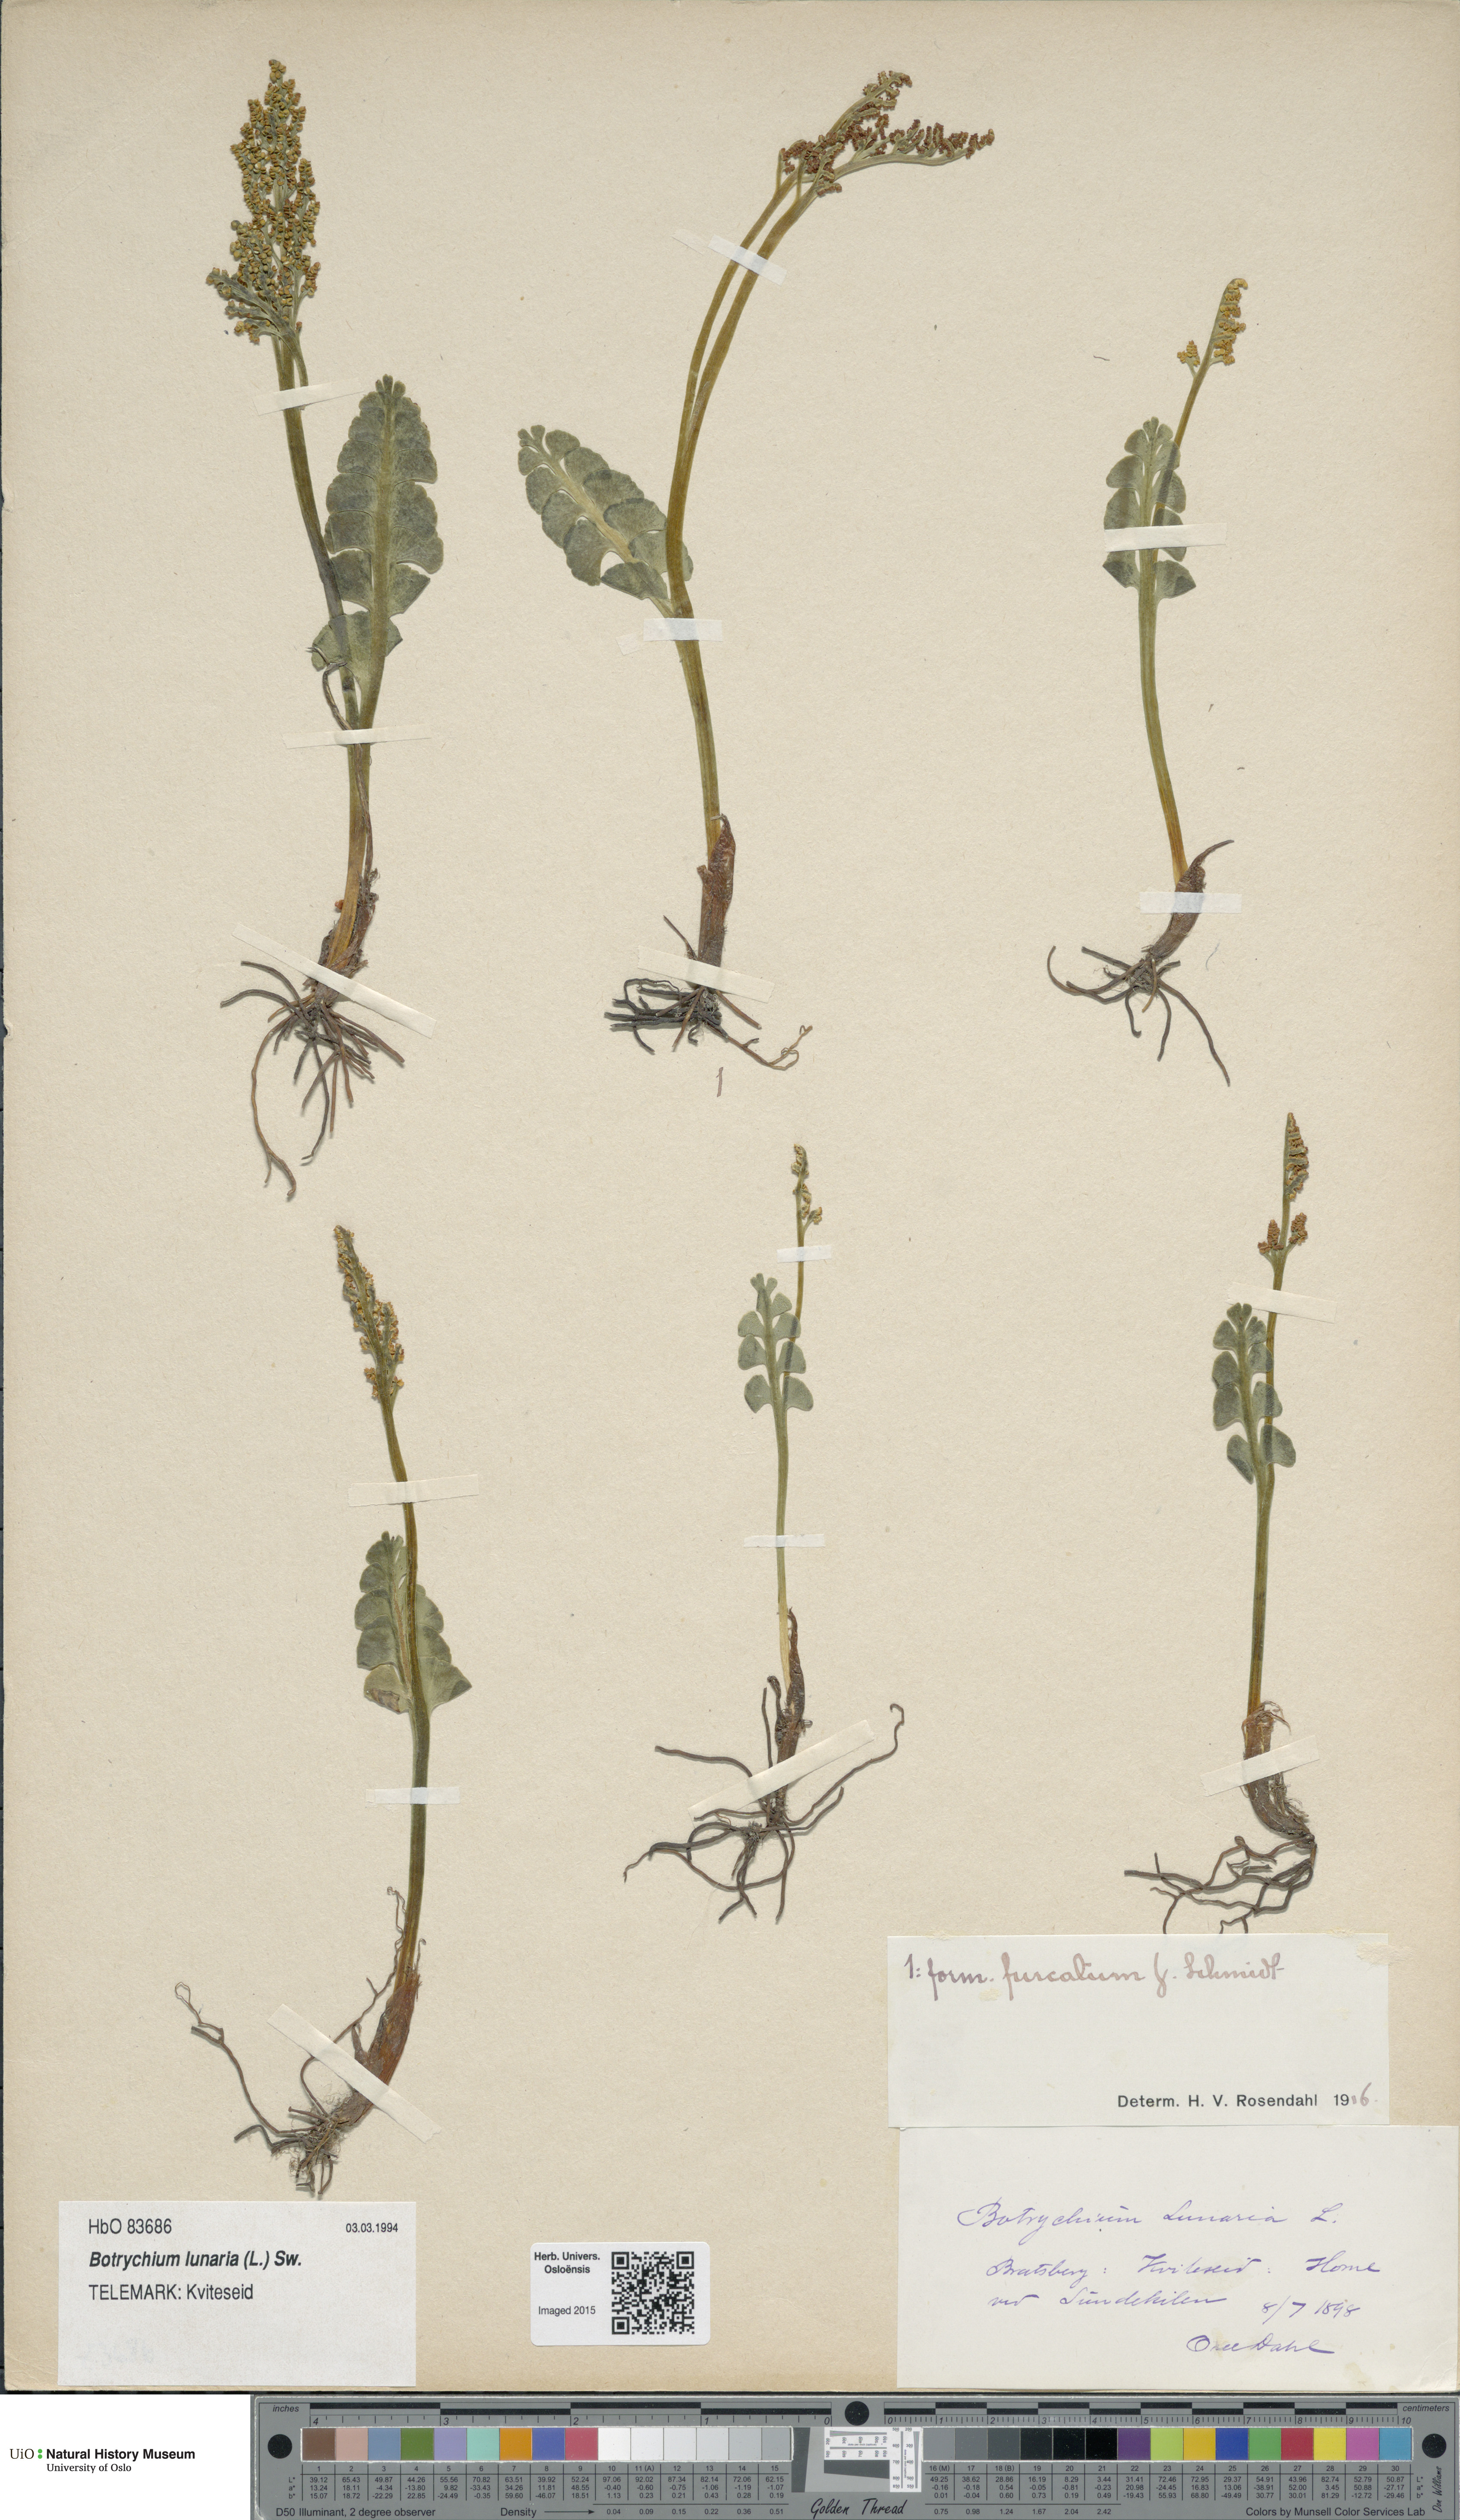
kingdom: Plantae
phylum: Tracheophyta
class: Polypodiopsida
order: Ophioglossales
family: Ophioglossaceae
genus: Botrychium
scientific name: Botrychium lunaria
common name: Moonwort
